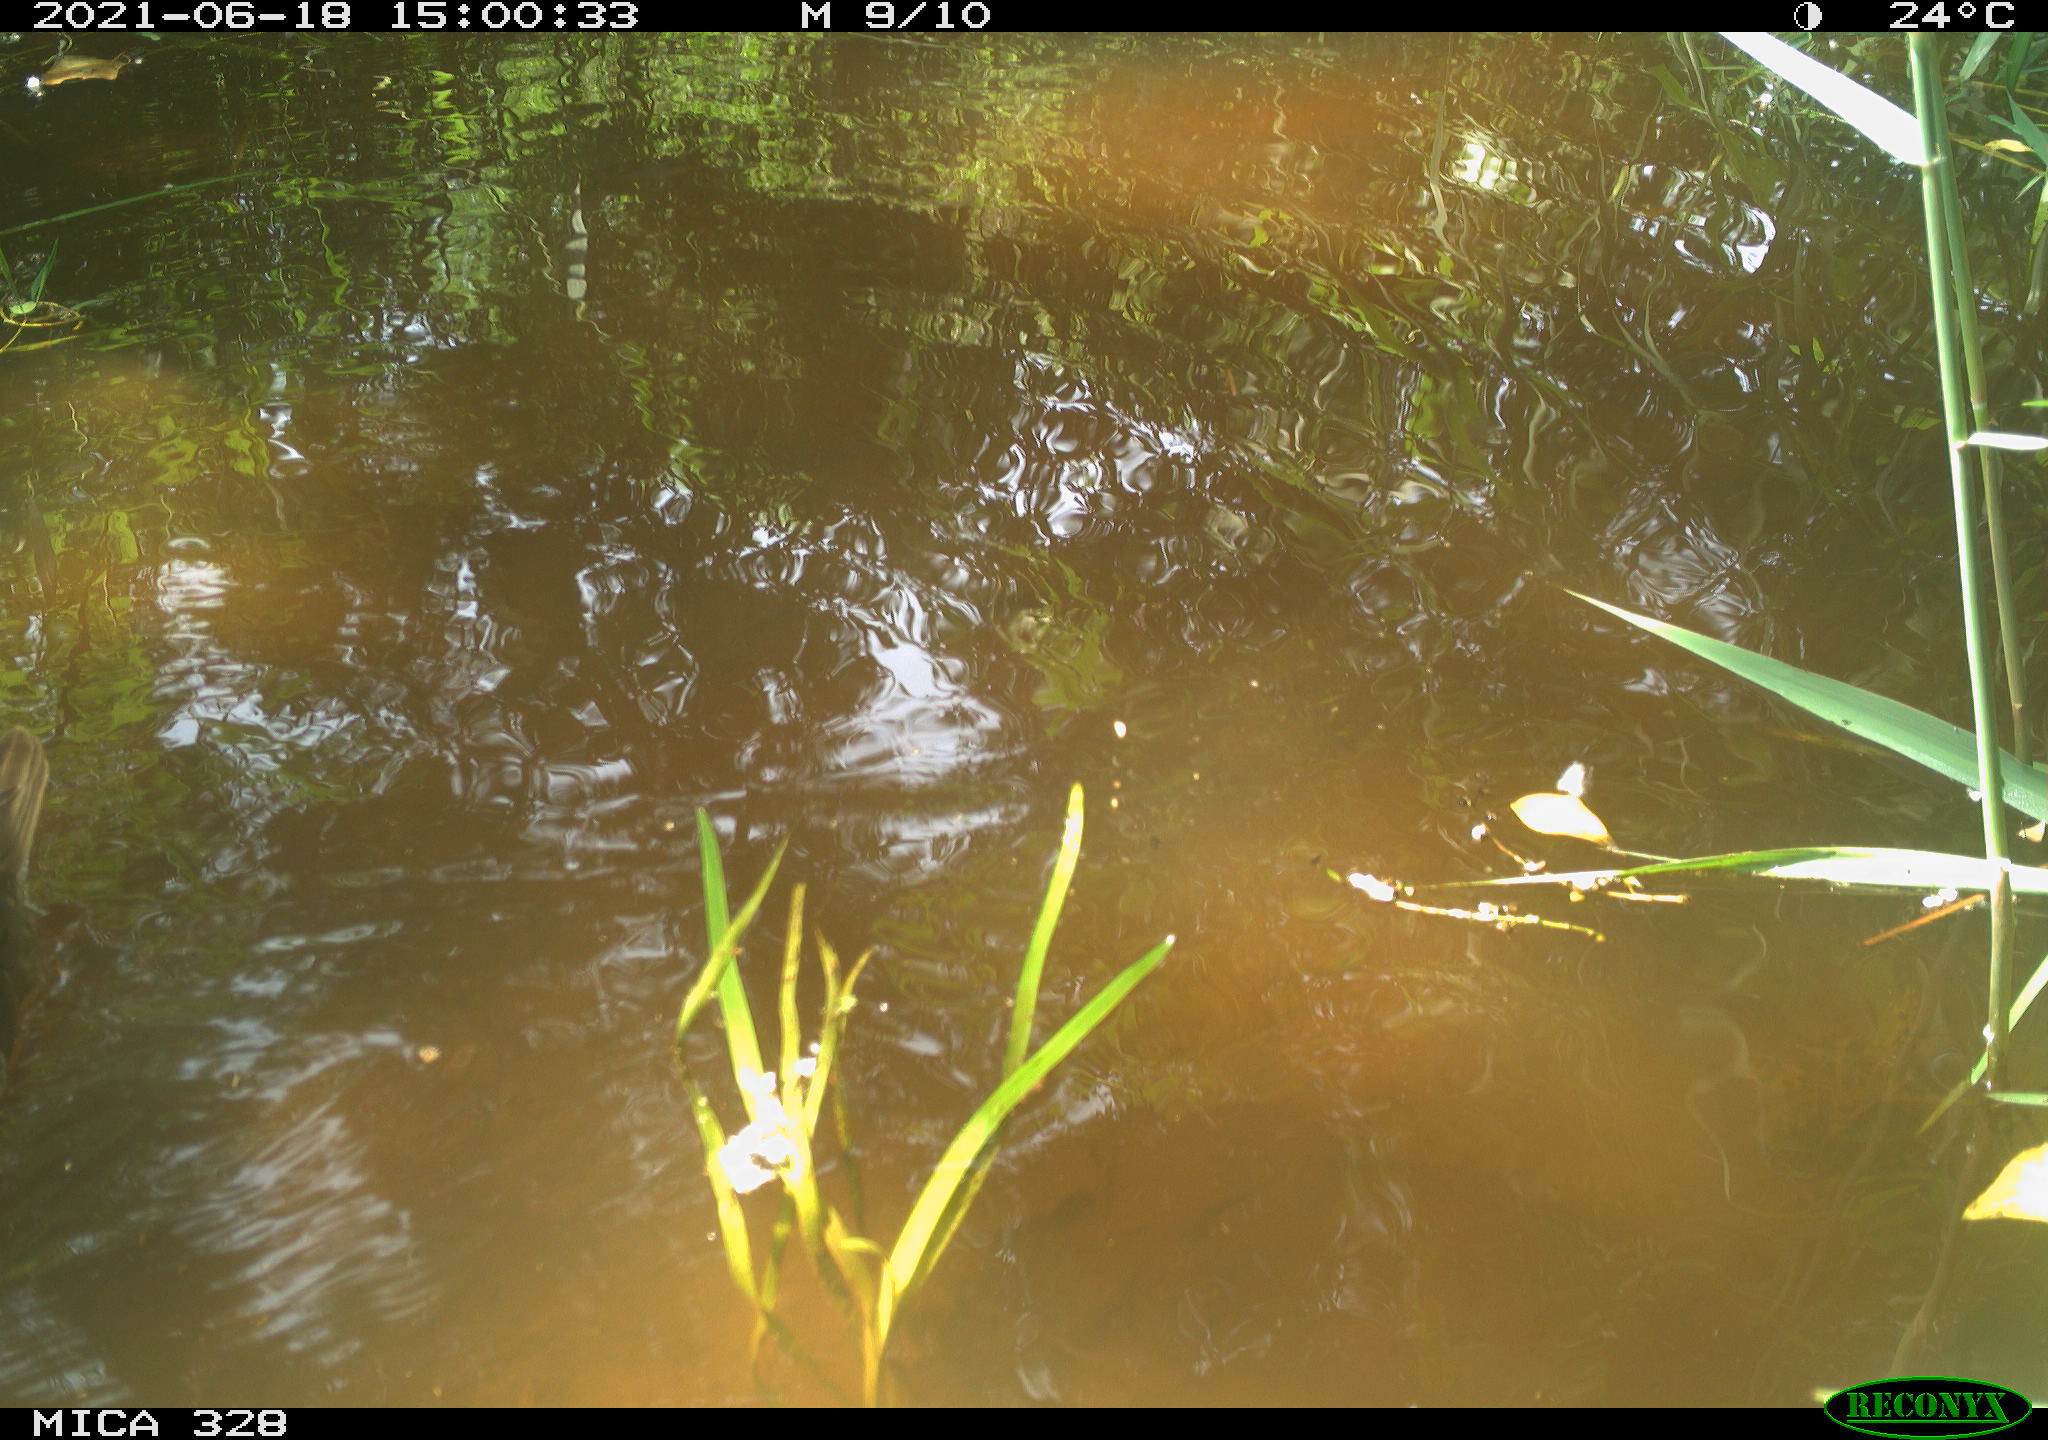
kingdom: Animalia
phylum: Chordata
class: Aves
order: Anseriformes
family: Anatidae
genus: Aix
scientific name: Aix galericulata
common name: Mandarin duck
